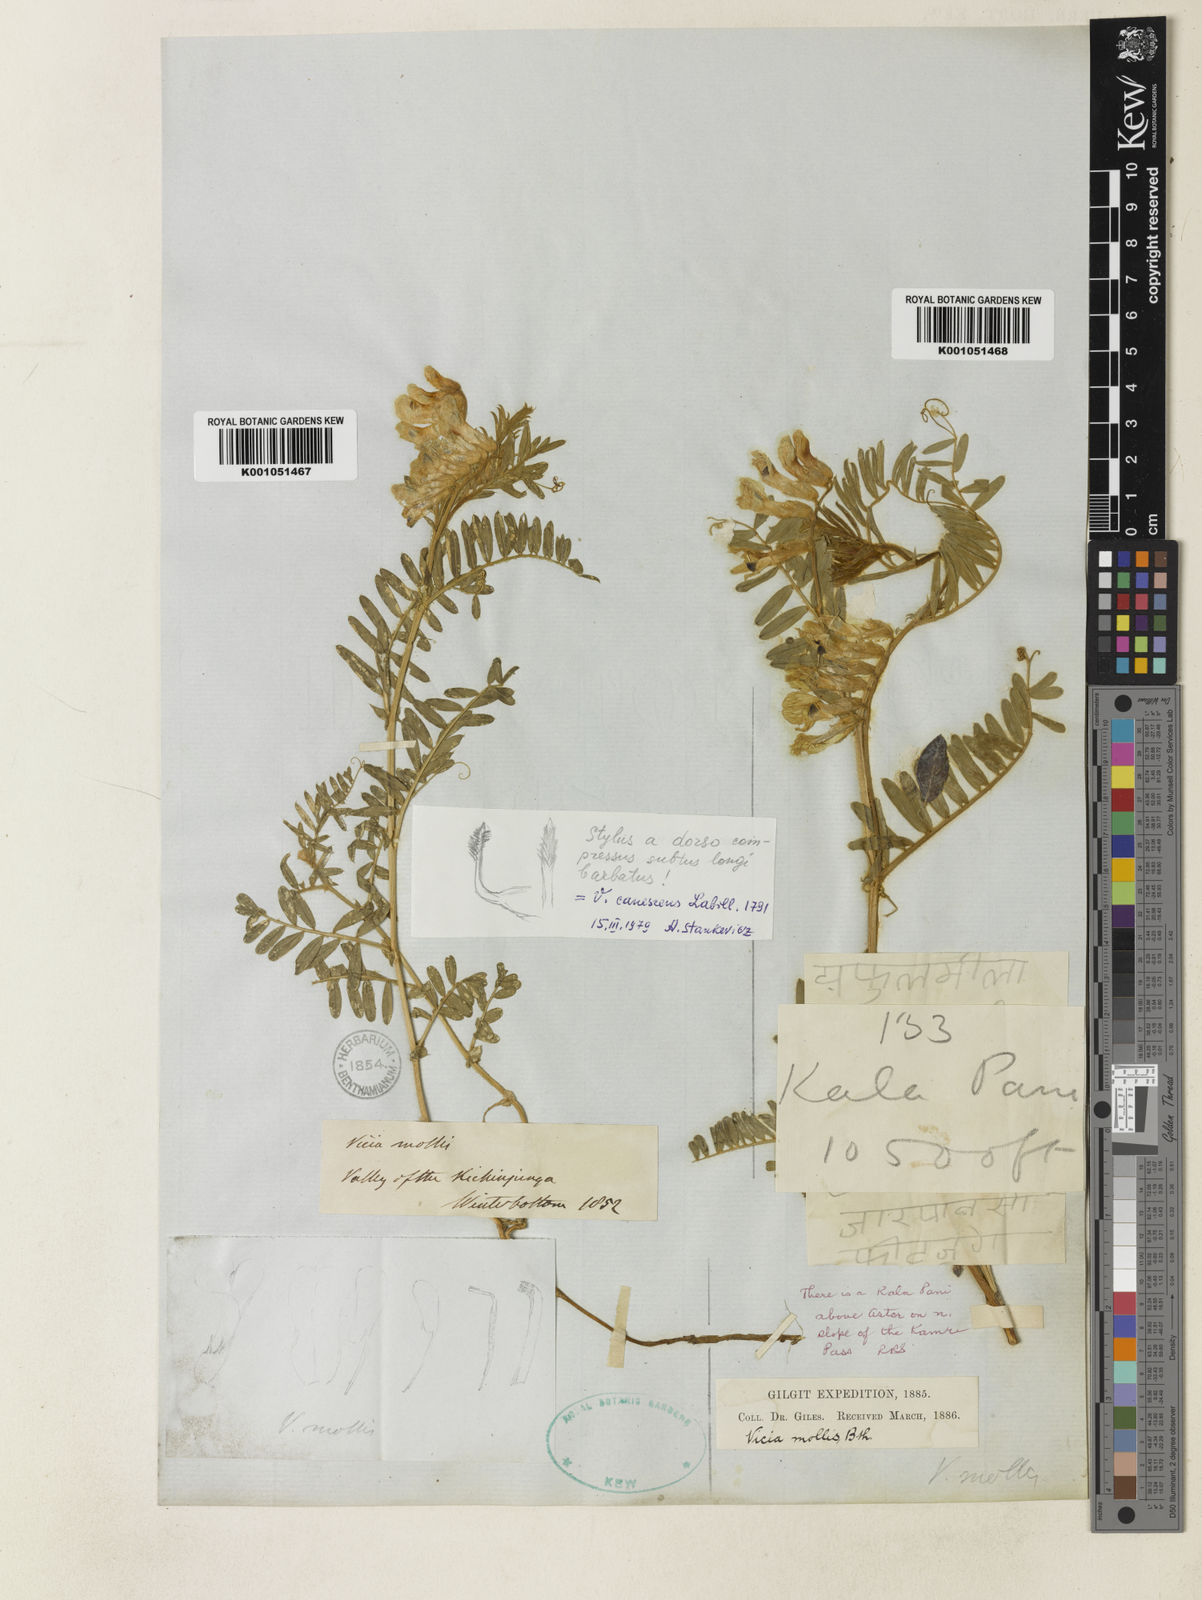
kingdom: Plantae
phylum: Tracheophyta
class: Magnoliopsida
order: Fabales
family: Fabaceae
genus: Vicia
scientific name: Vicia
